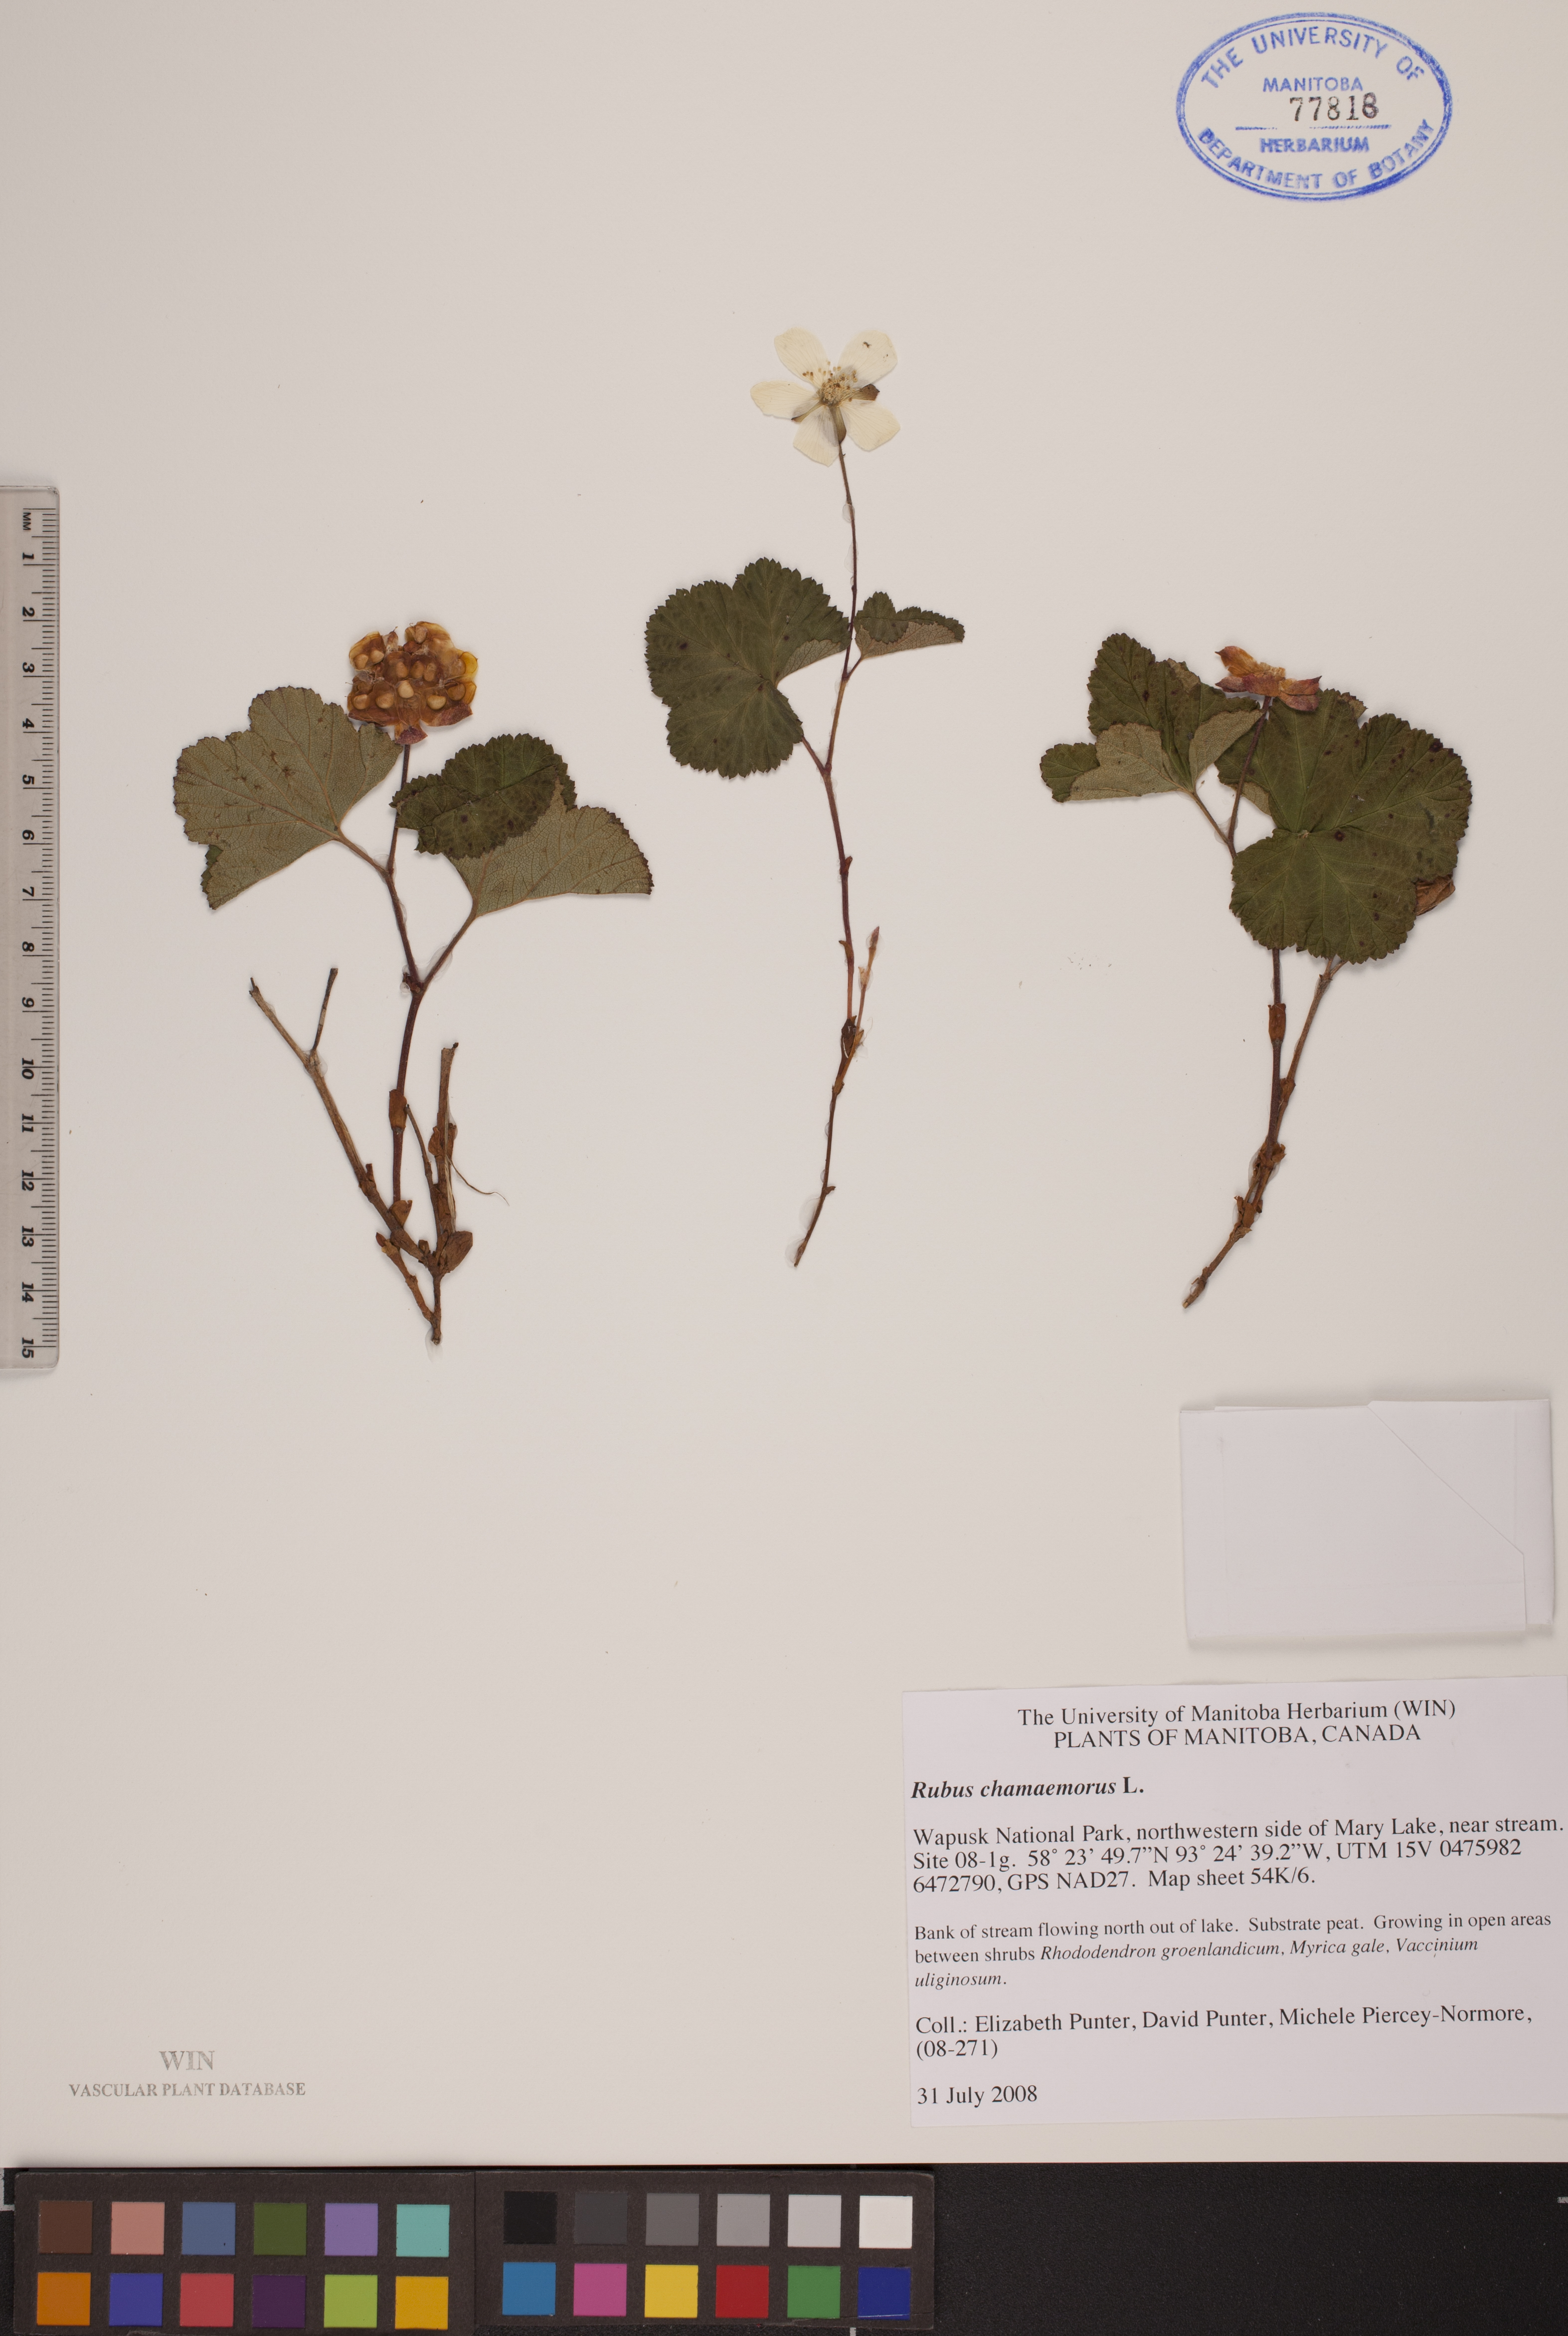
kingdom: Plantae
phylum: Tracheophyta
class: Magnoliopsida
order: Rosales
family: Rosaceae
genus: Rubus
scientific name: Rubus chamaemorus
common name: Cloudberry
